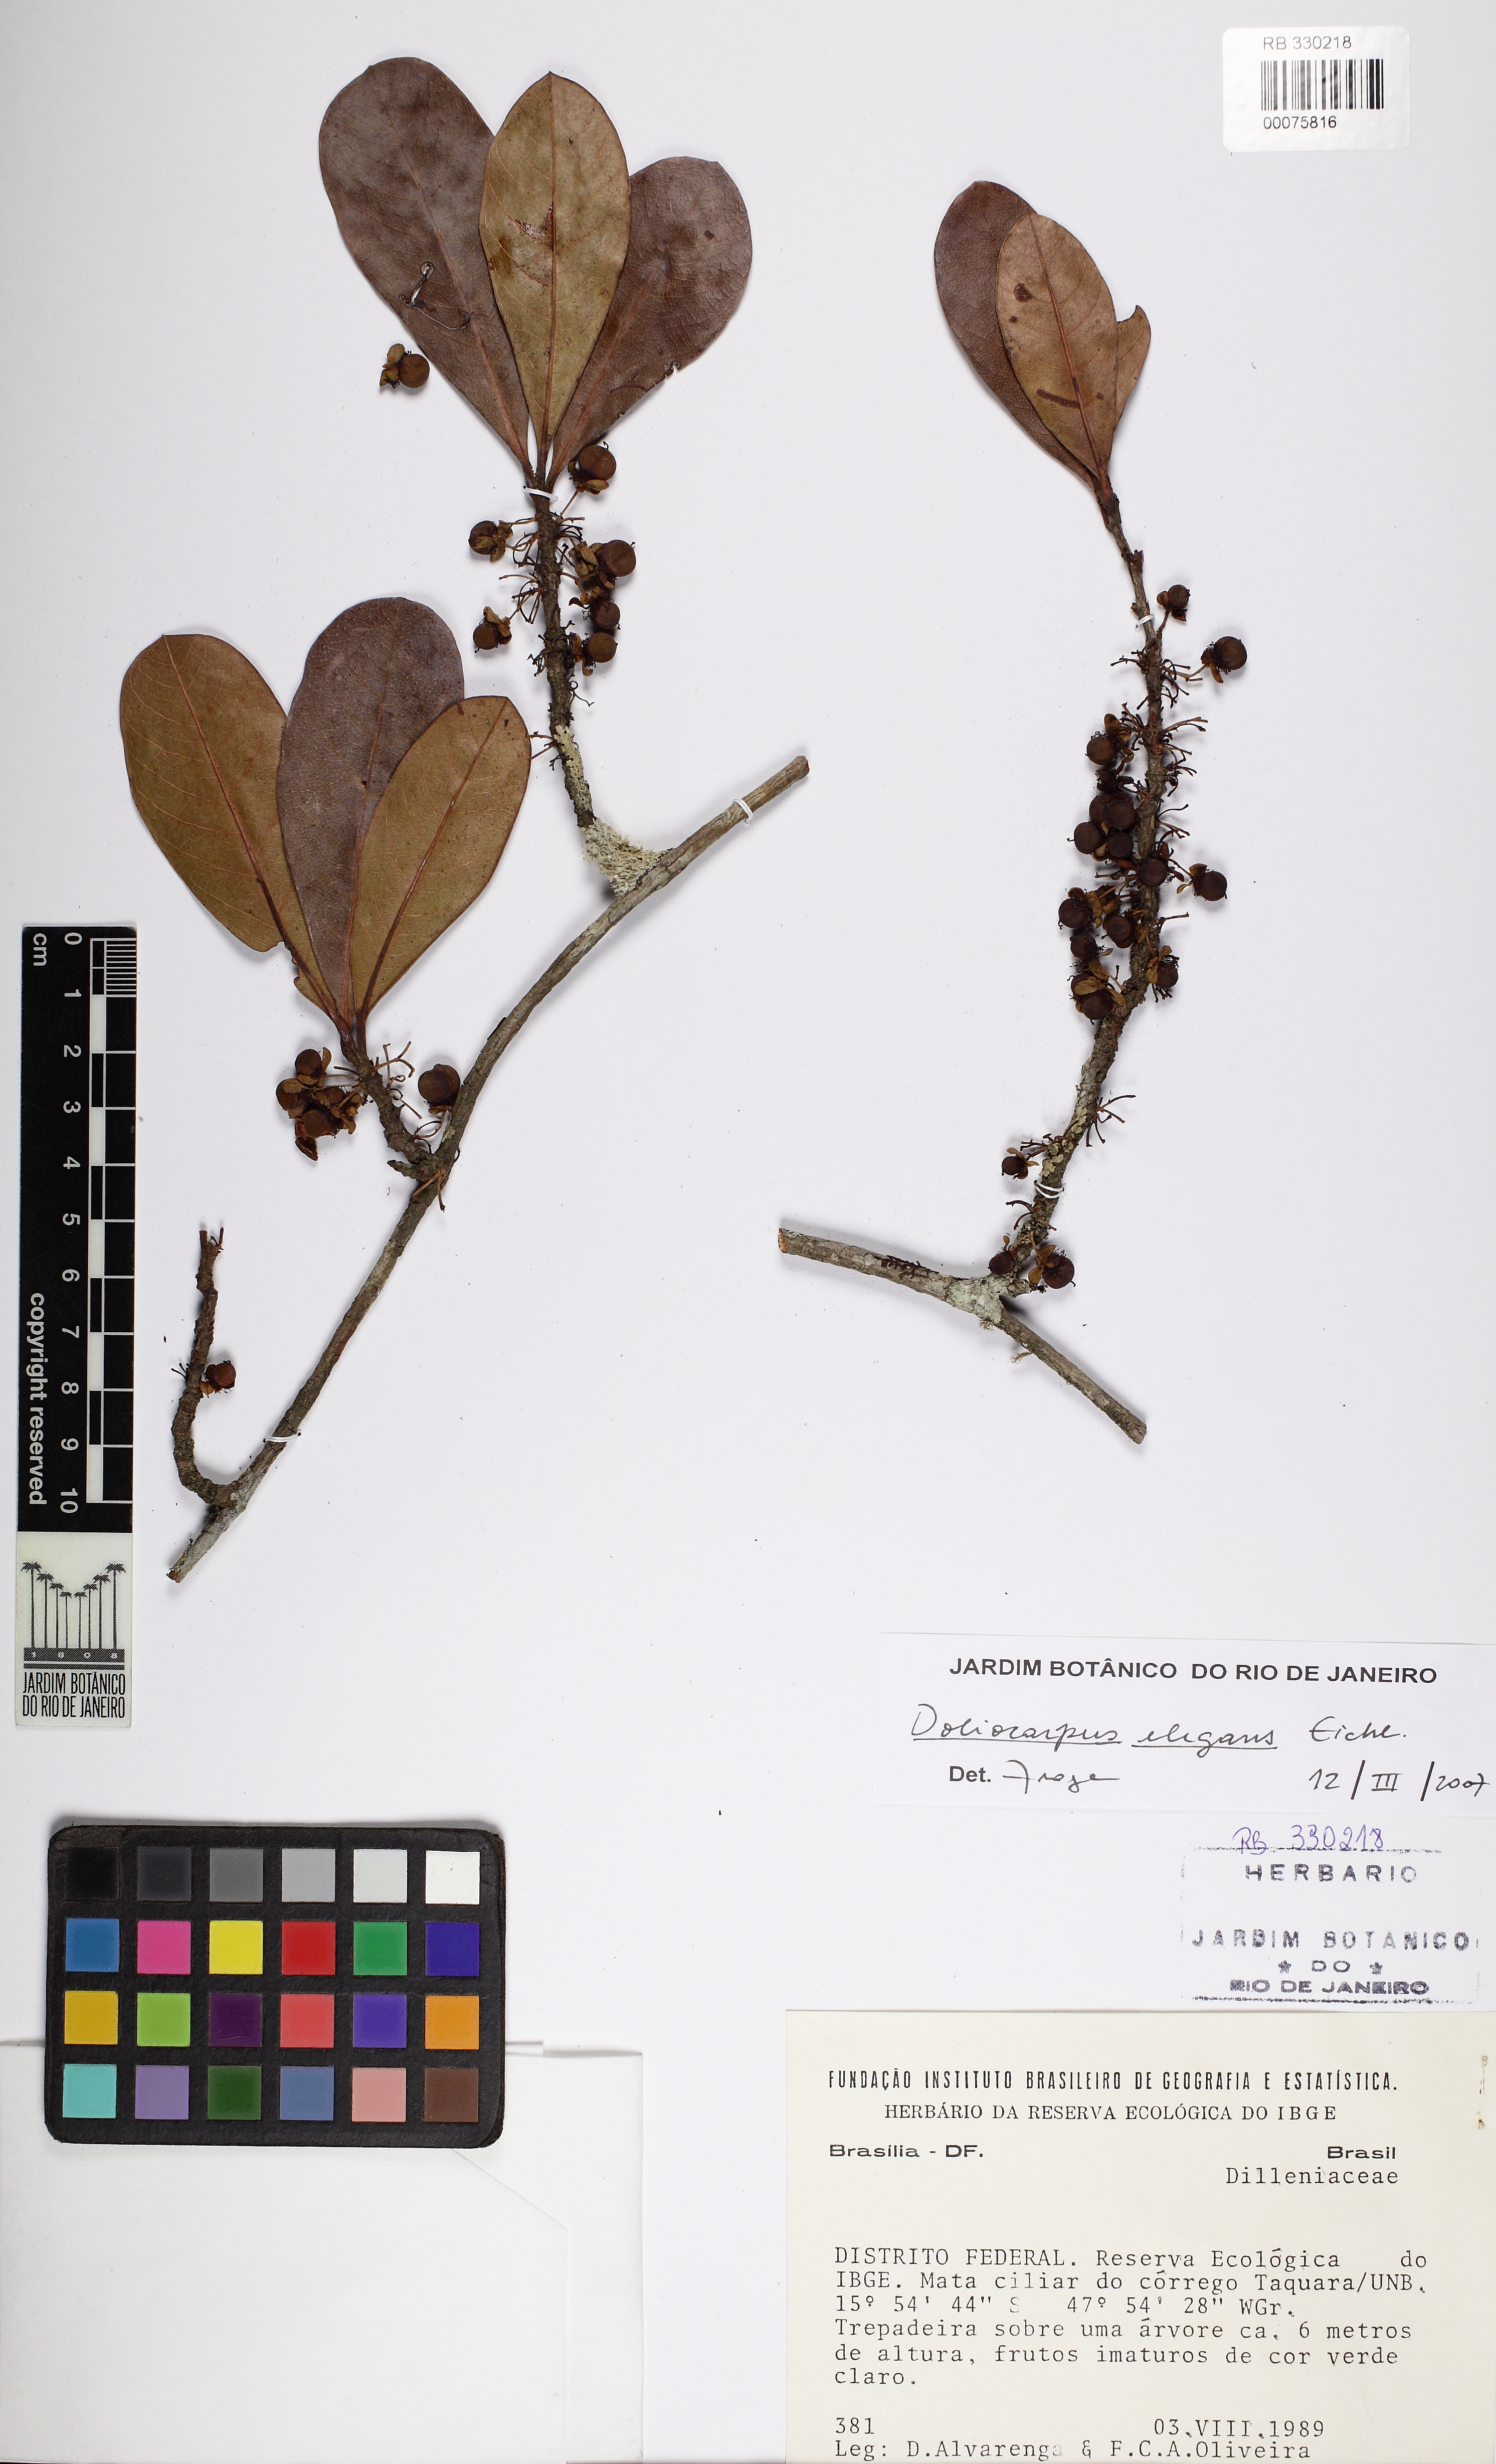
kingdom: Plantae
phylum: Tracheophyta
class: Magnoliopsida
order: Dilleniales
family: Dilleniaceae
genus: Doliocarpus
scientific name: Doliocarpus elegans
